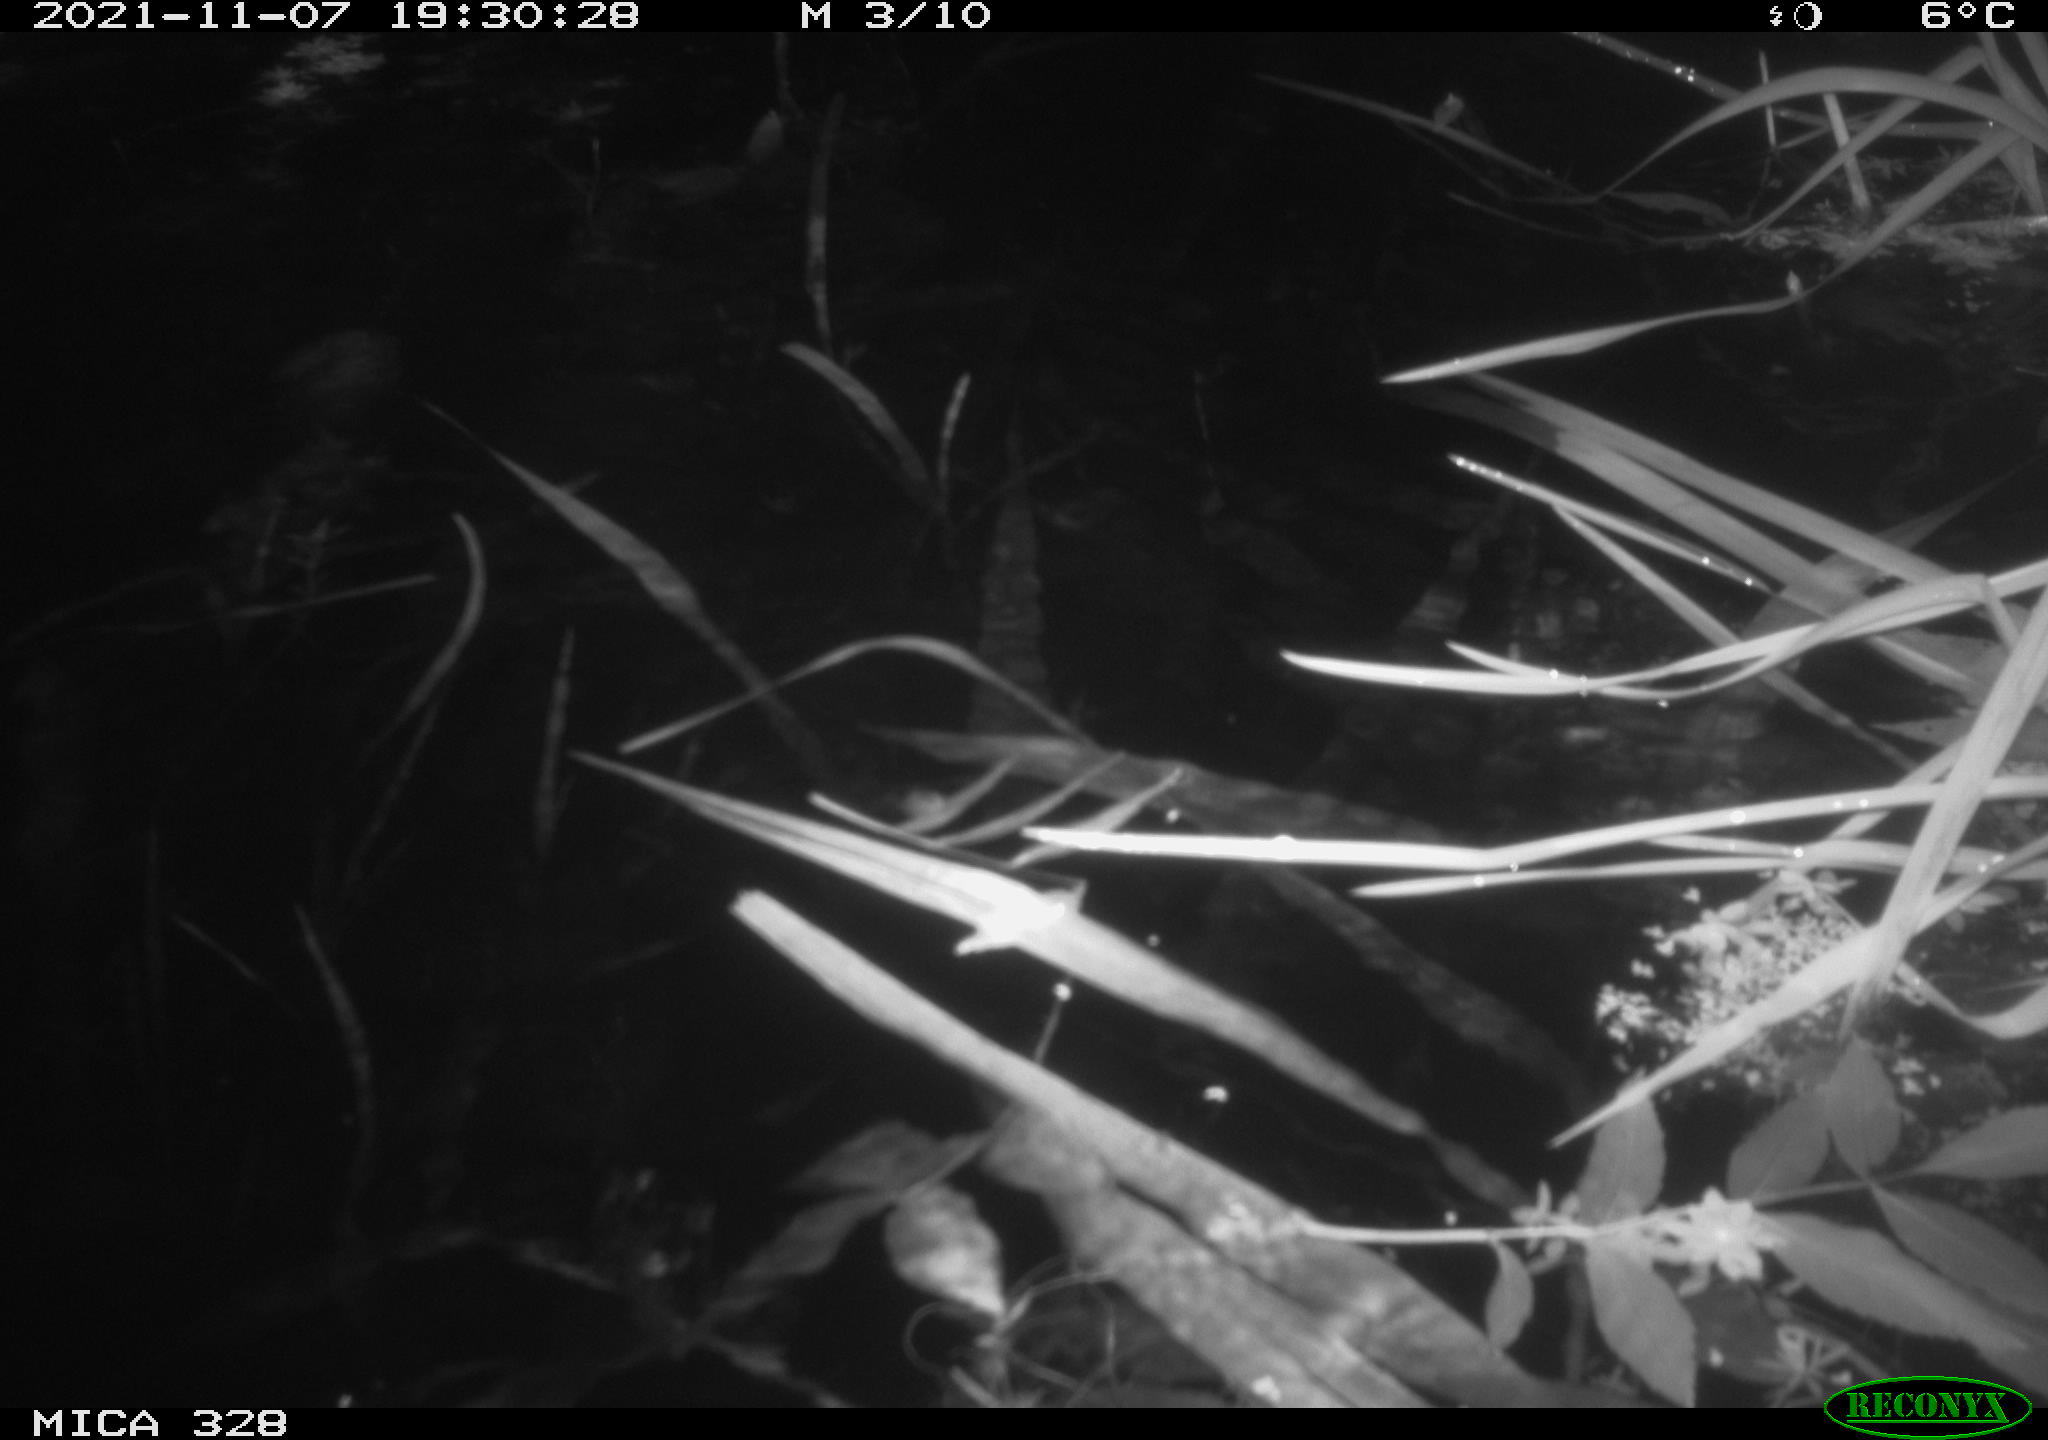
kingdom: Animalia
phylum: Chordata
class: Mammalia
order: Rodentia
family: Cricetidae
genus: Ondatra
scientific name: Ondatra zibethicus
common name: Muskrat
